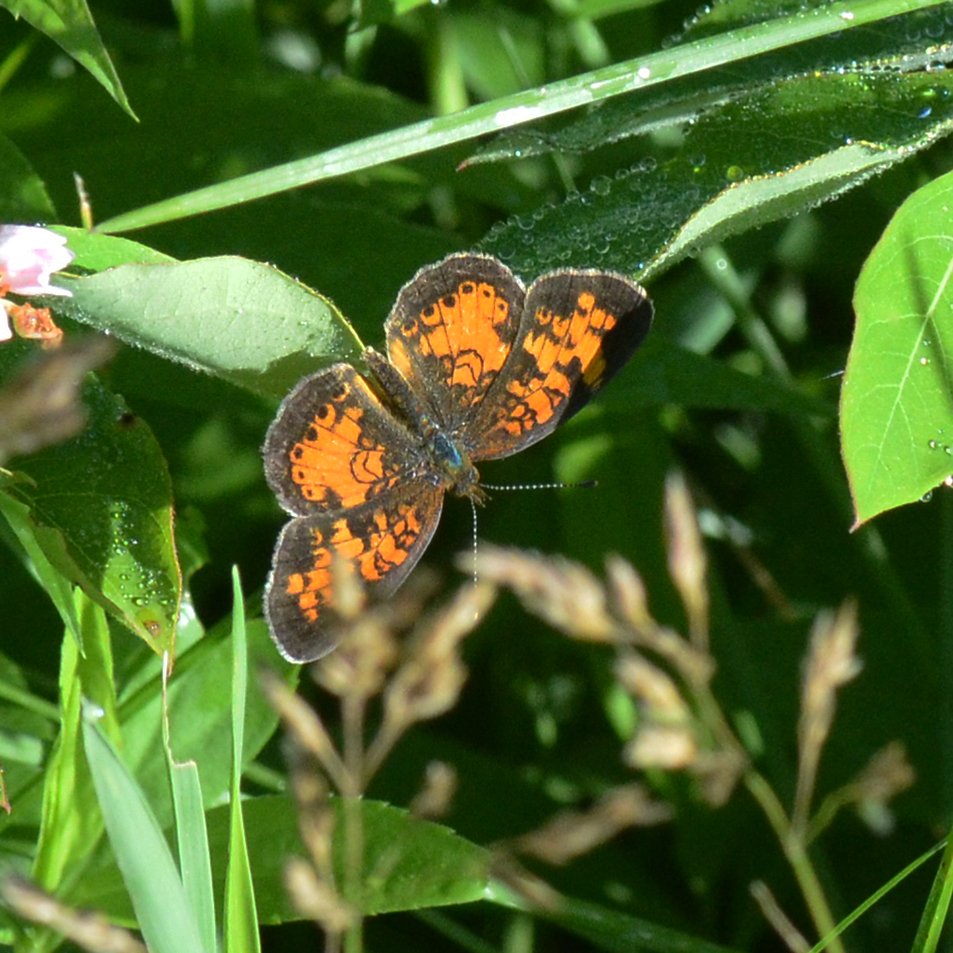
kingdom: Animalia
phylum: Arthropoda
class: Insecta
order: Lepidoptera
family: Nymphalidae
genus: Phyciodes
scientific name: Phyciodes tharos
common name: Northern Crescent
